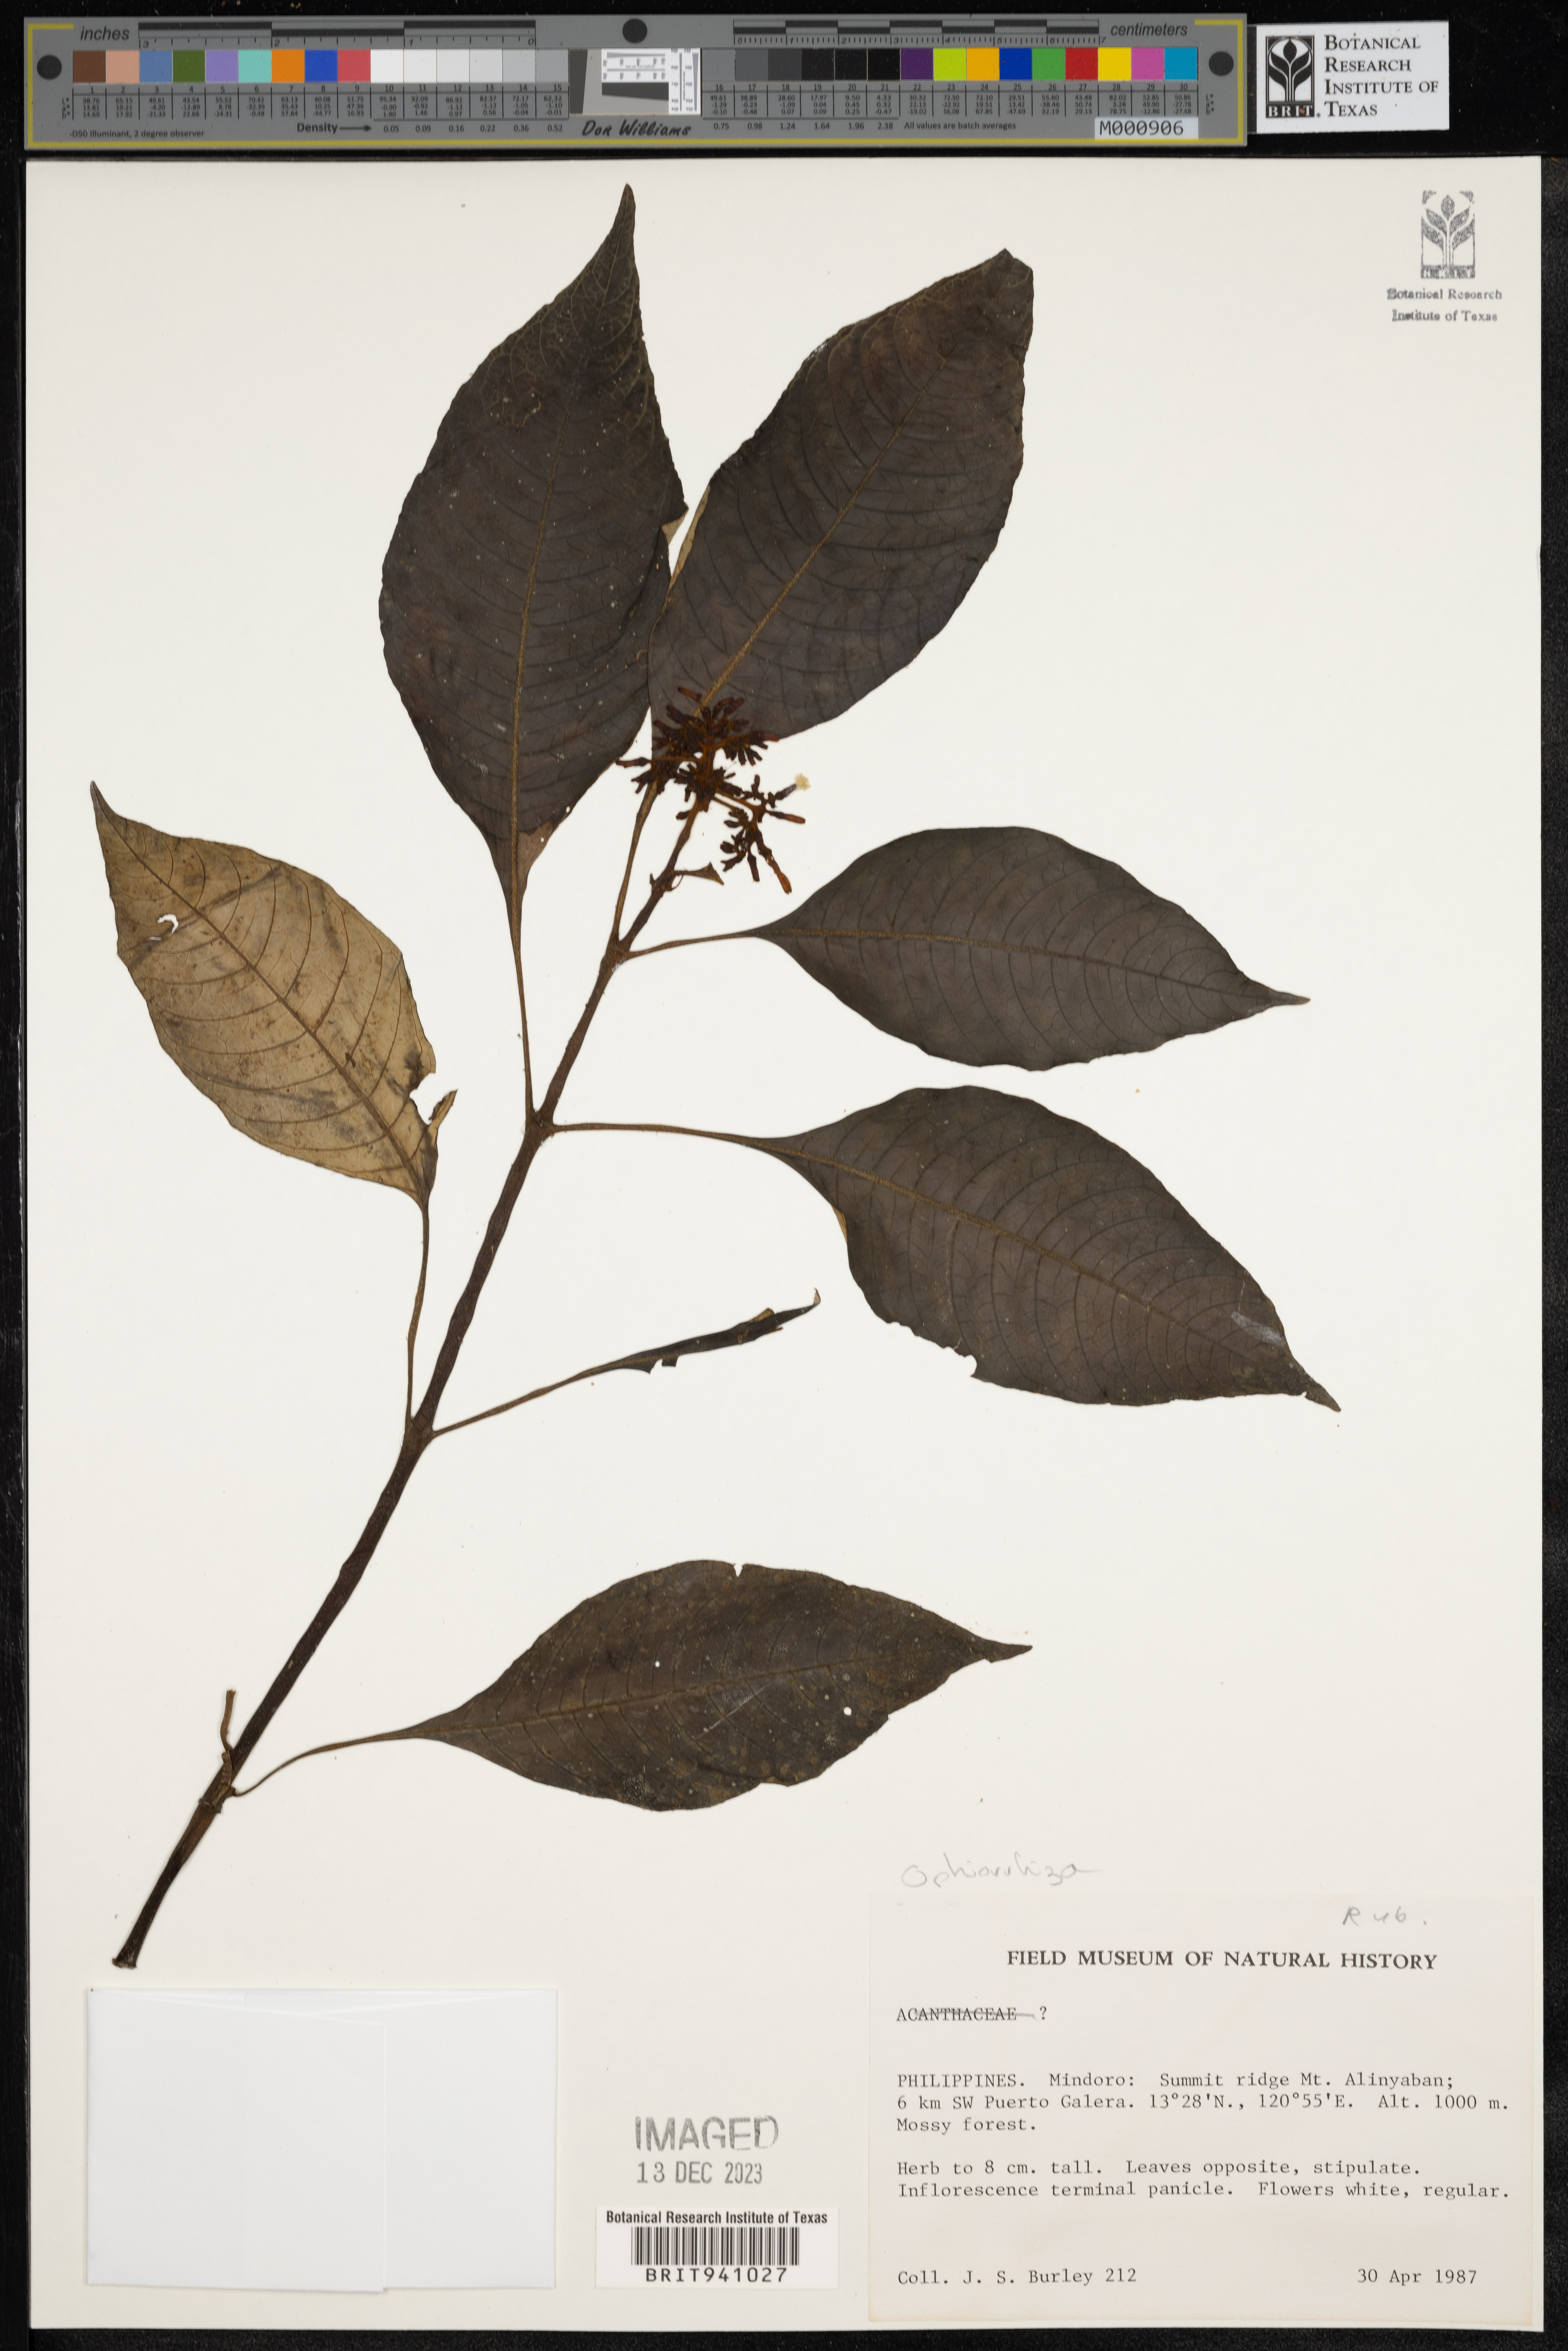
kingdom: Plantae
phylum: Tracheophyta
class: Magnoliopsida
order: Gentianales
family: Rubiaceae
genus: Ophiorrhiza
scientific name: Ophiorrhiza
